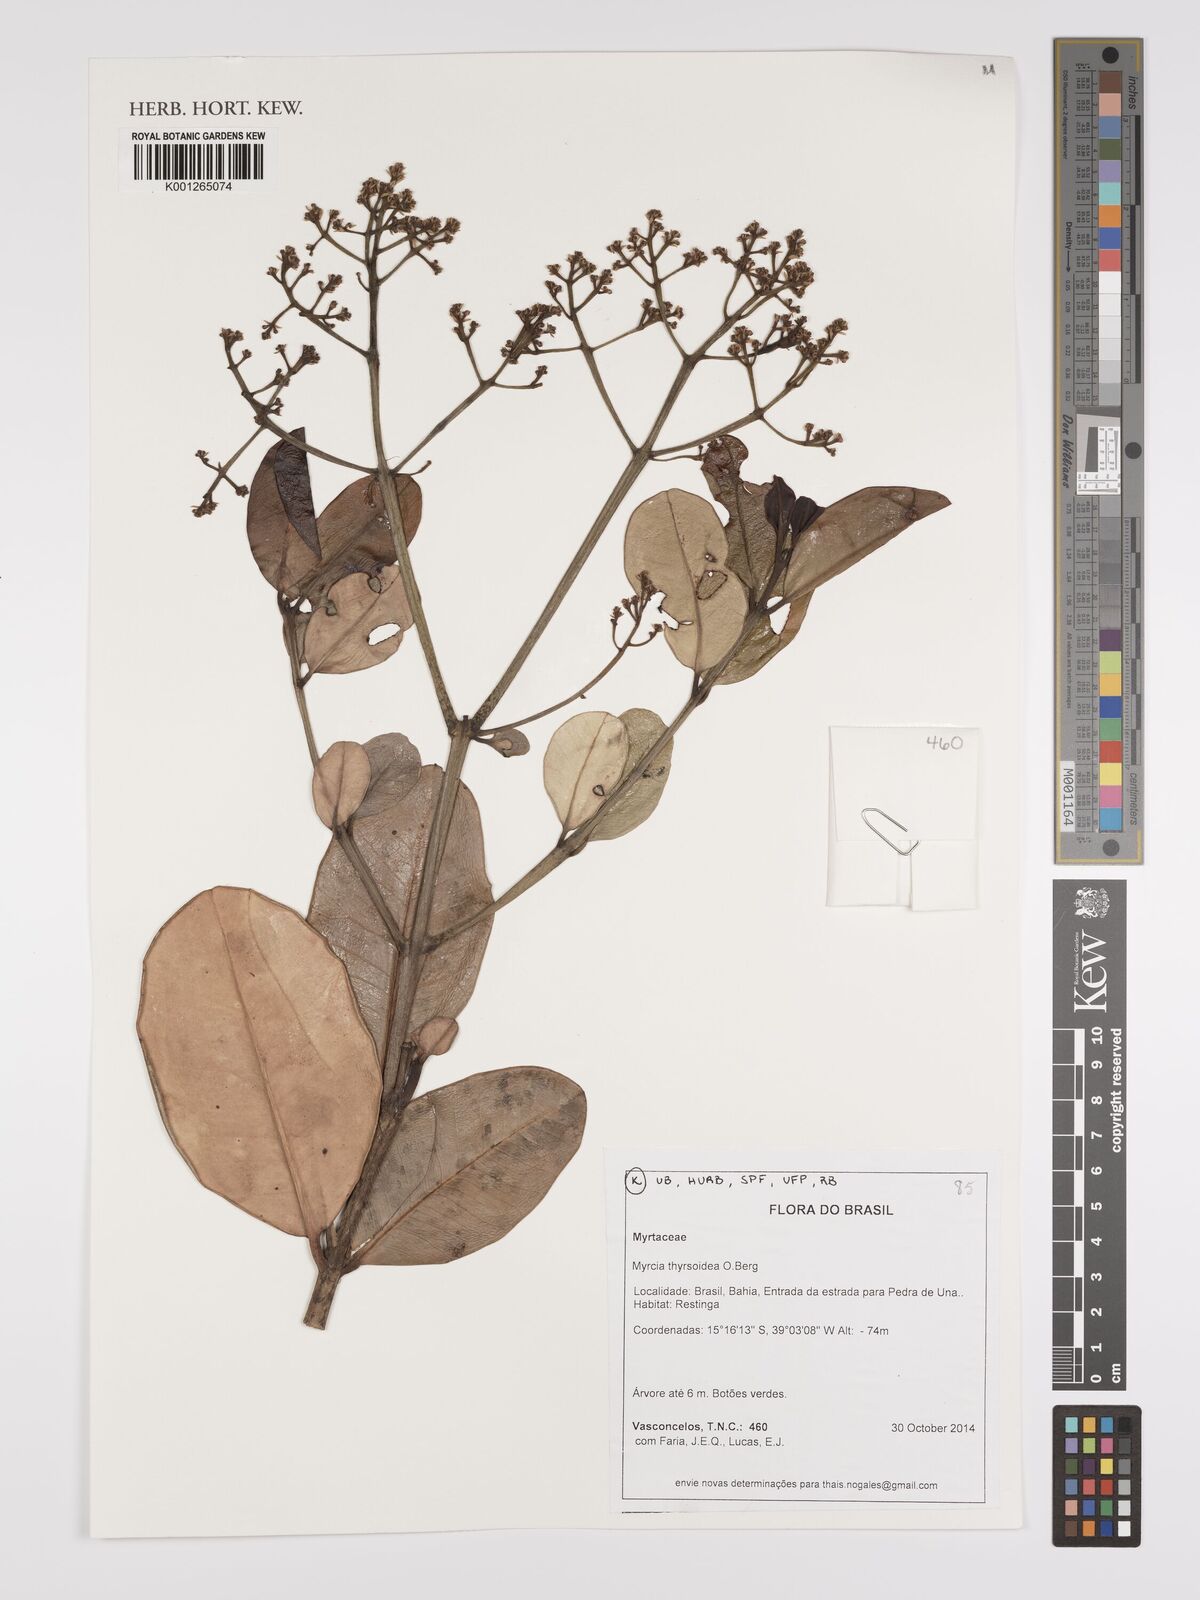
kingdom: Plantae
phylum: Tracheophyta
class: Magnoliopsida
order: Myrtales
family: Myrtaceae
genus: Myrcia
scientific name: Myrcia thyrsoidea
